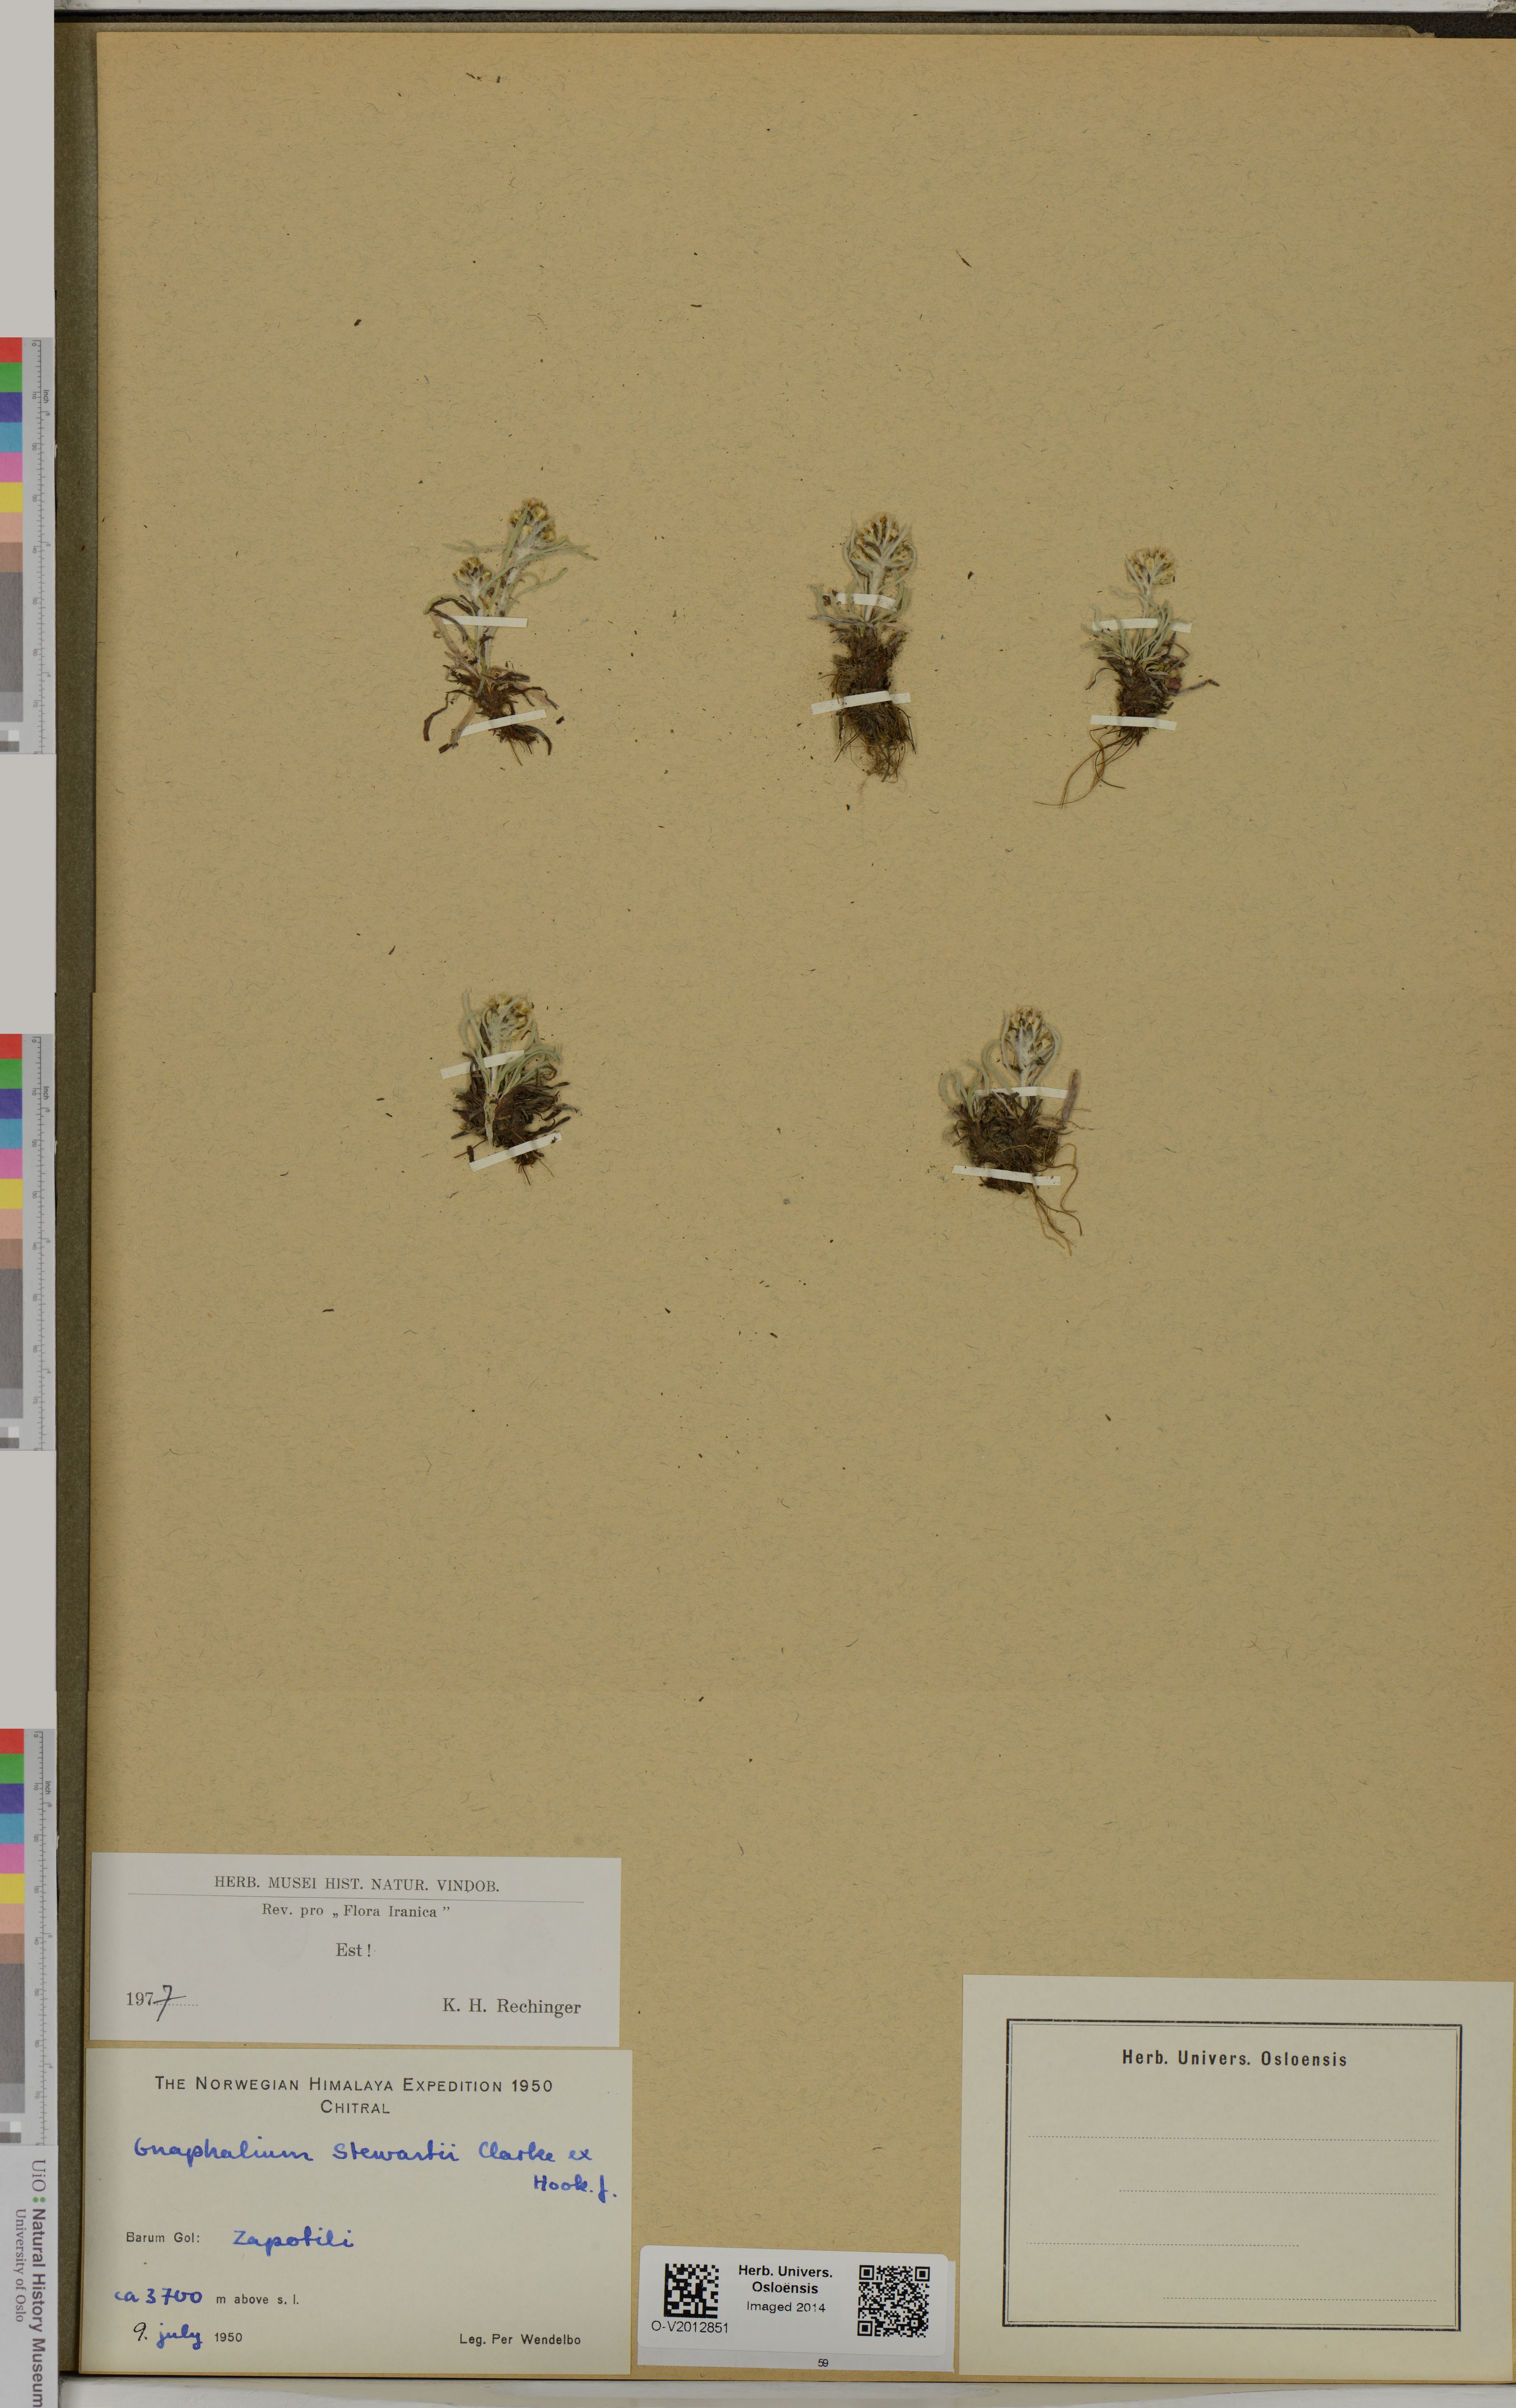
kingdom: Plantae
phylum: Tracheophyta
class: Magnoliopsida
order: Asterales
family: Asteraceae
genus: Gnaphalium
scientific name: Gnaphalium stewartii
